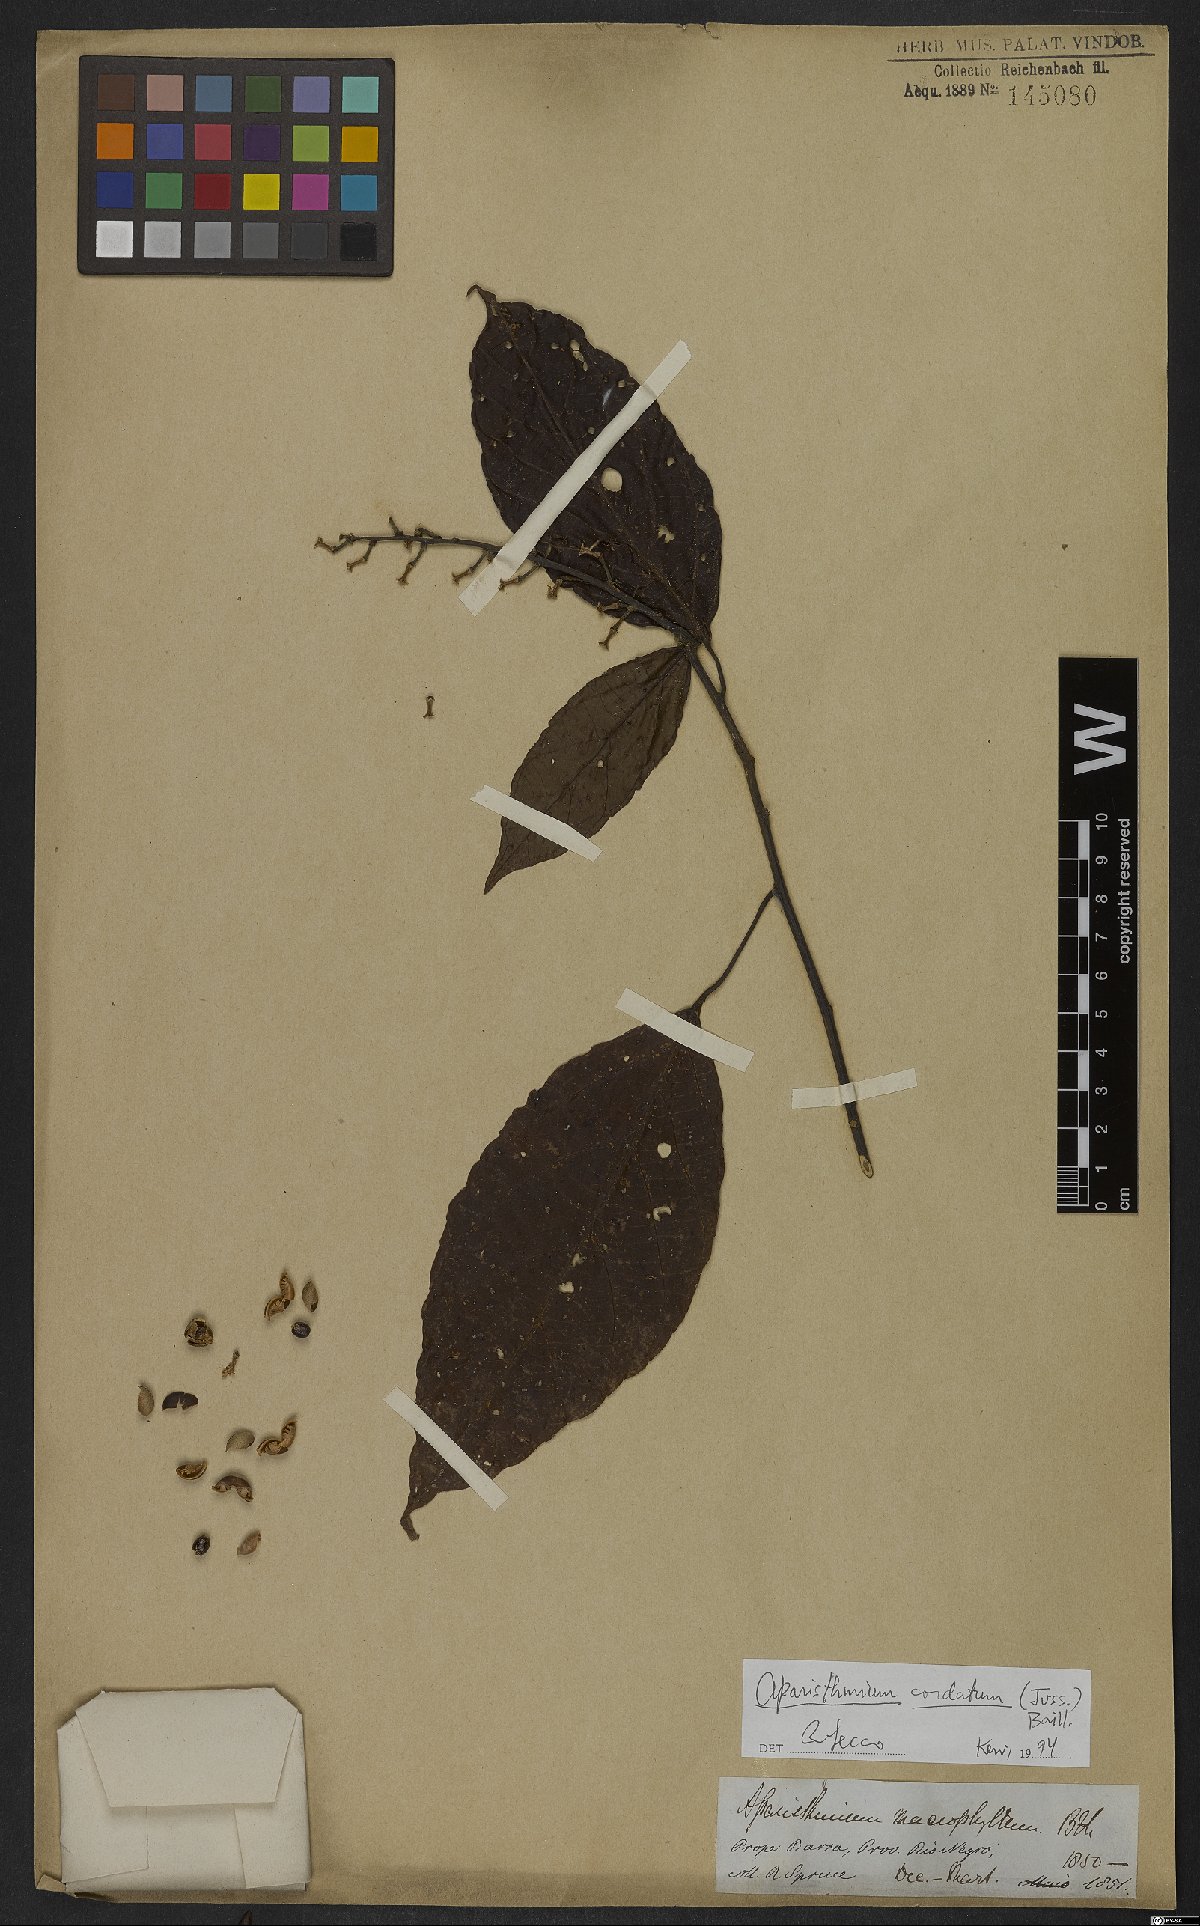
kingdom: Plantae
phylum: Tracheophyta
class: Magnoliopsida
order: Malpighiales
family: Euphorbiaceae
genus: Aparisthmium
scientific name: Aparisthmium cordatum
